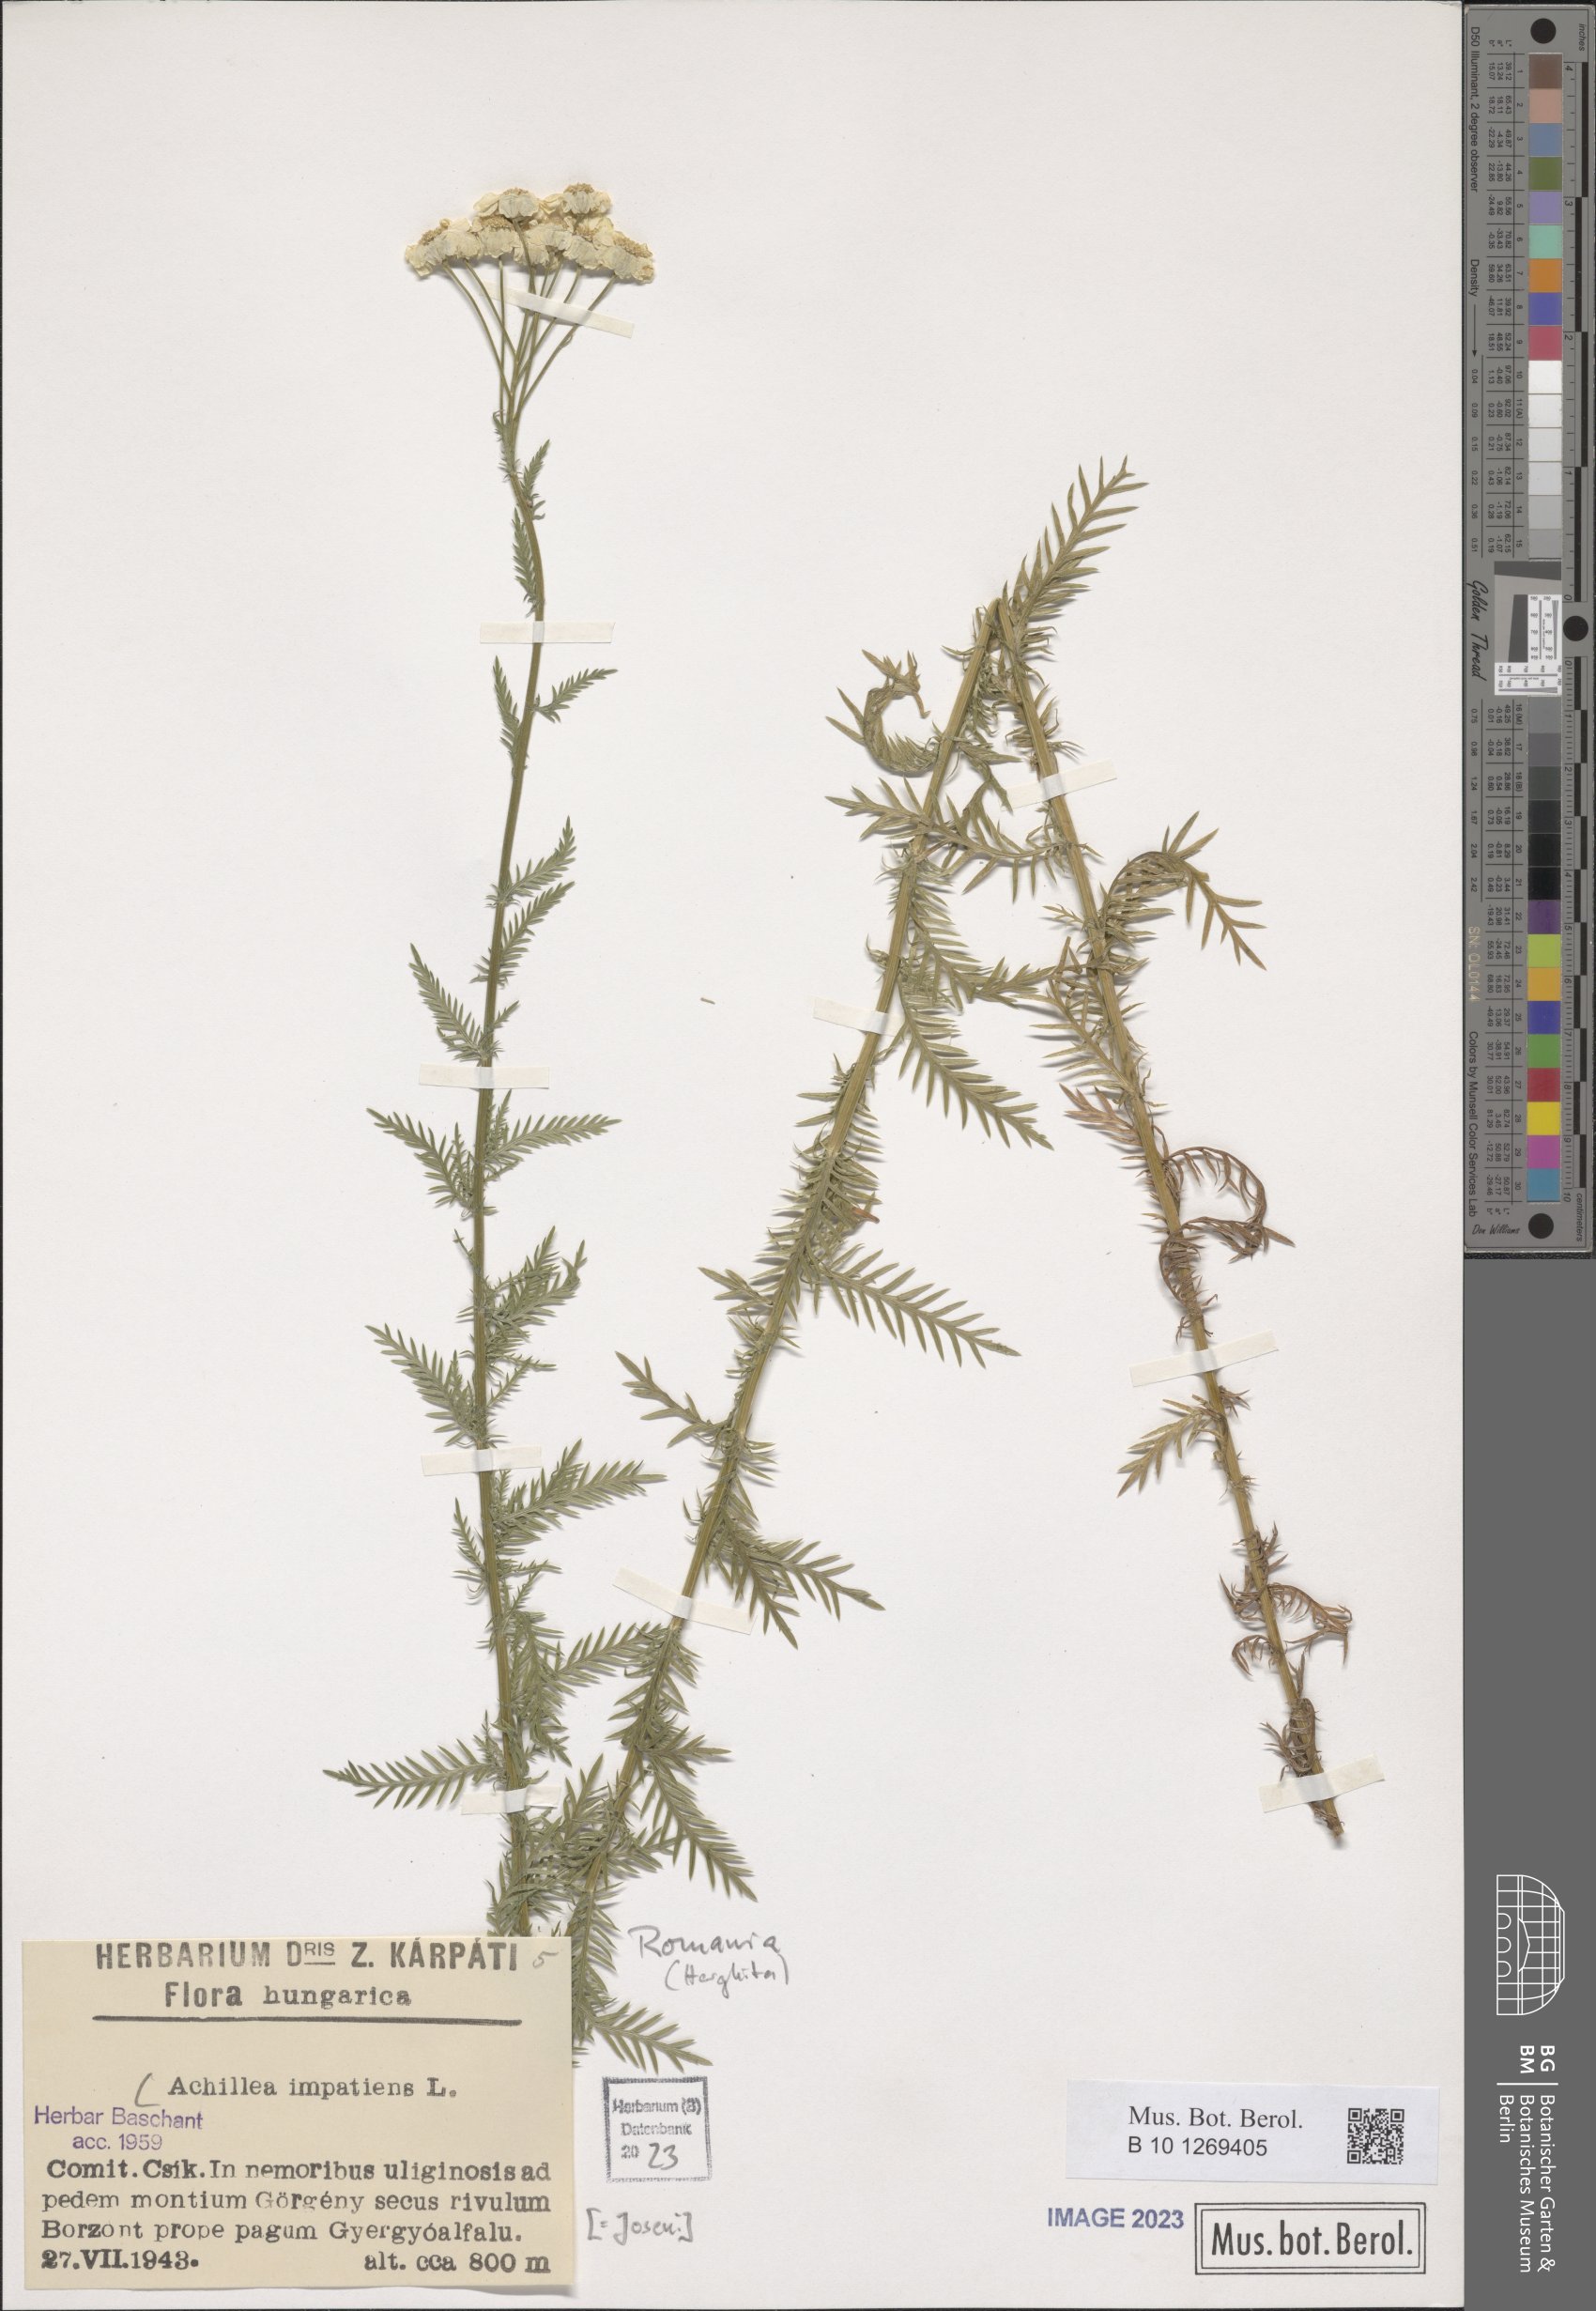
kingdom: Plantae
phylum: Tracheophyta
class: Magnoliopsida
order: Asterales
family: Asteraceae
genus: Achillea
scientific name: Achillea impatiens
